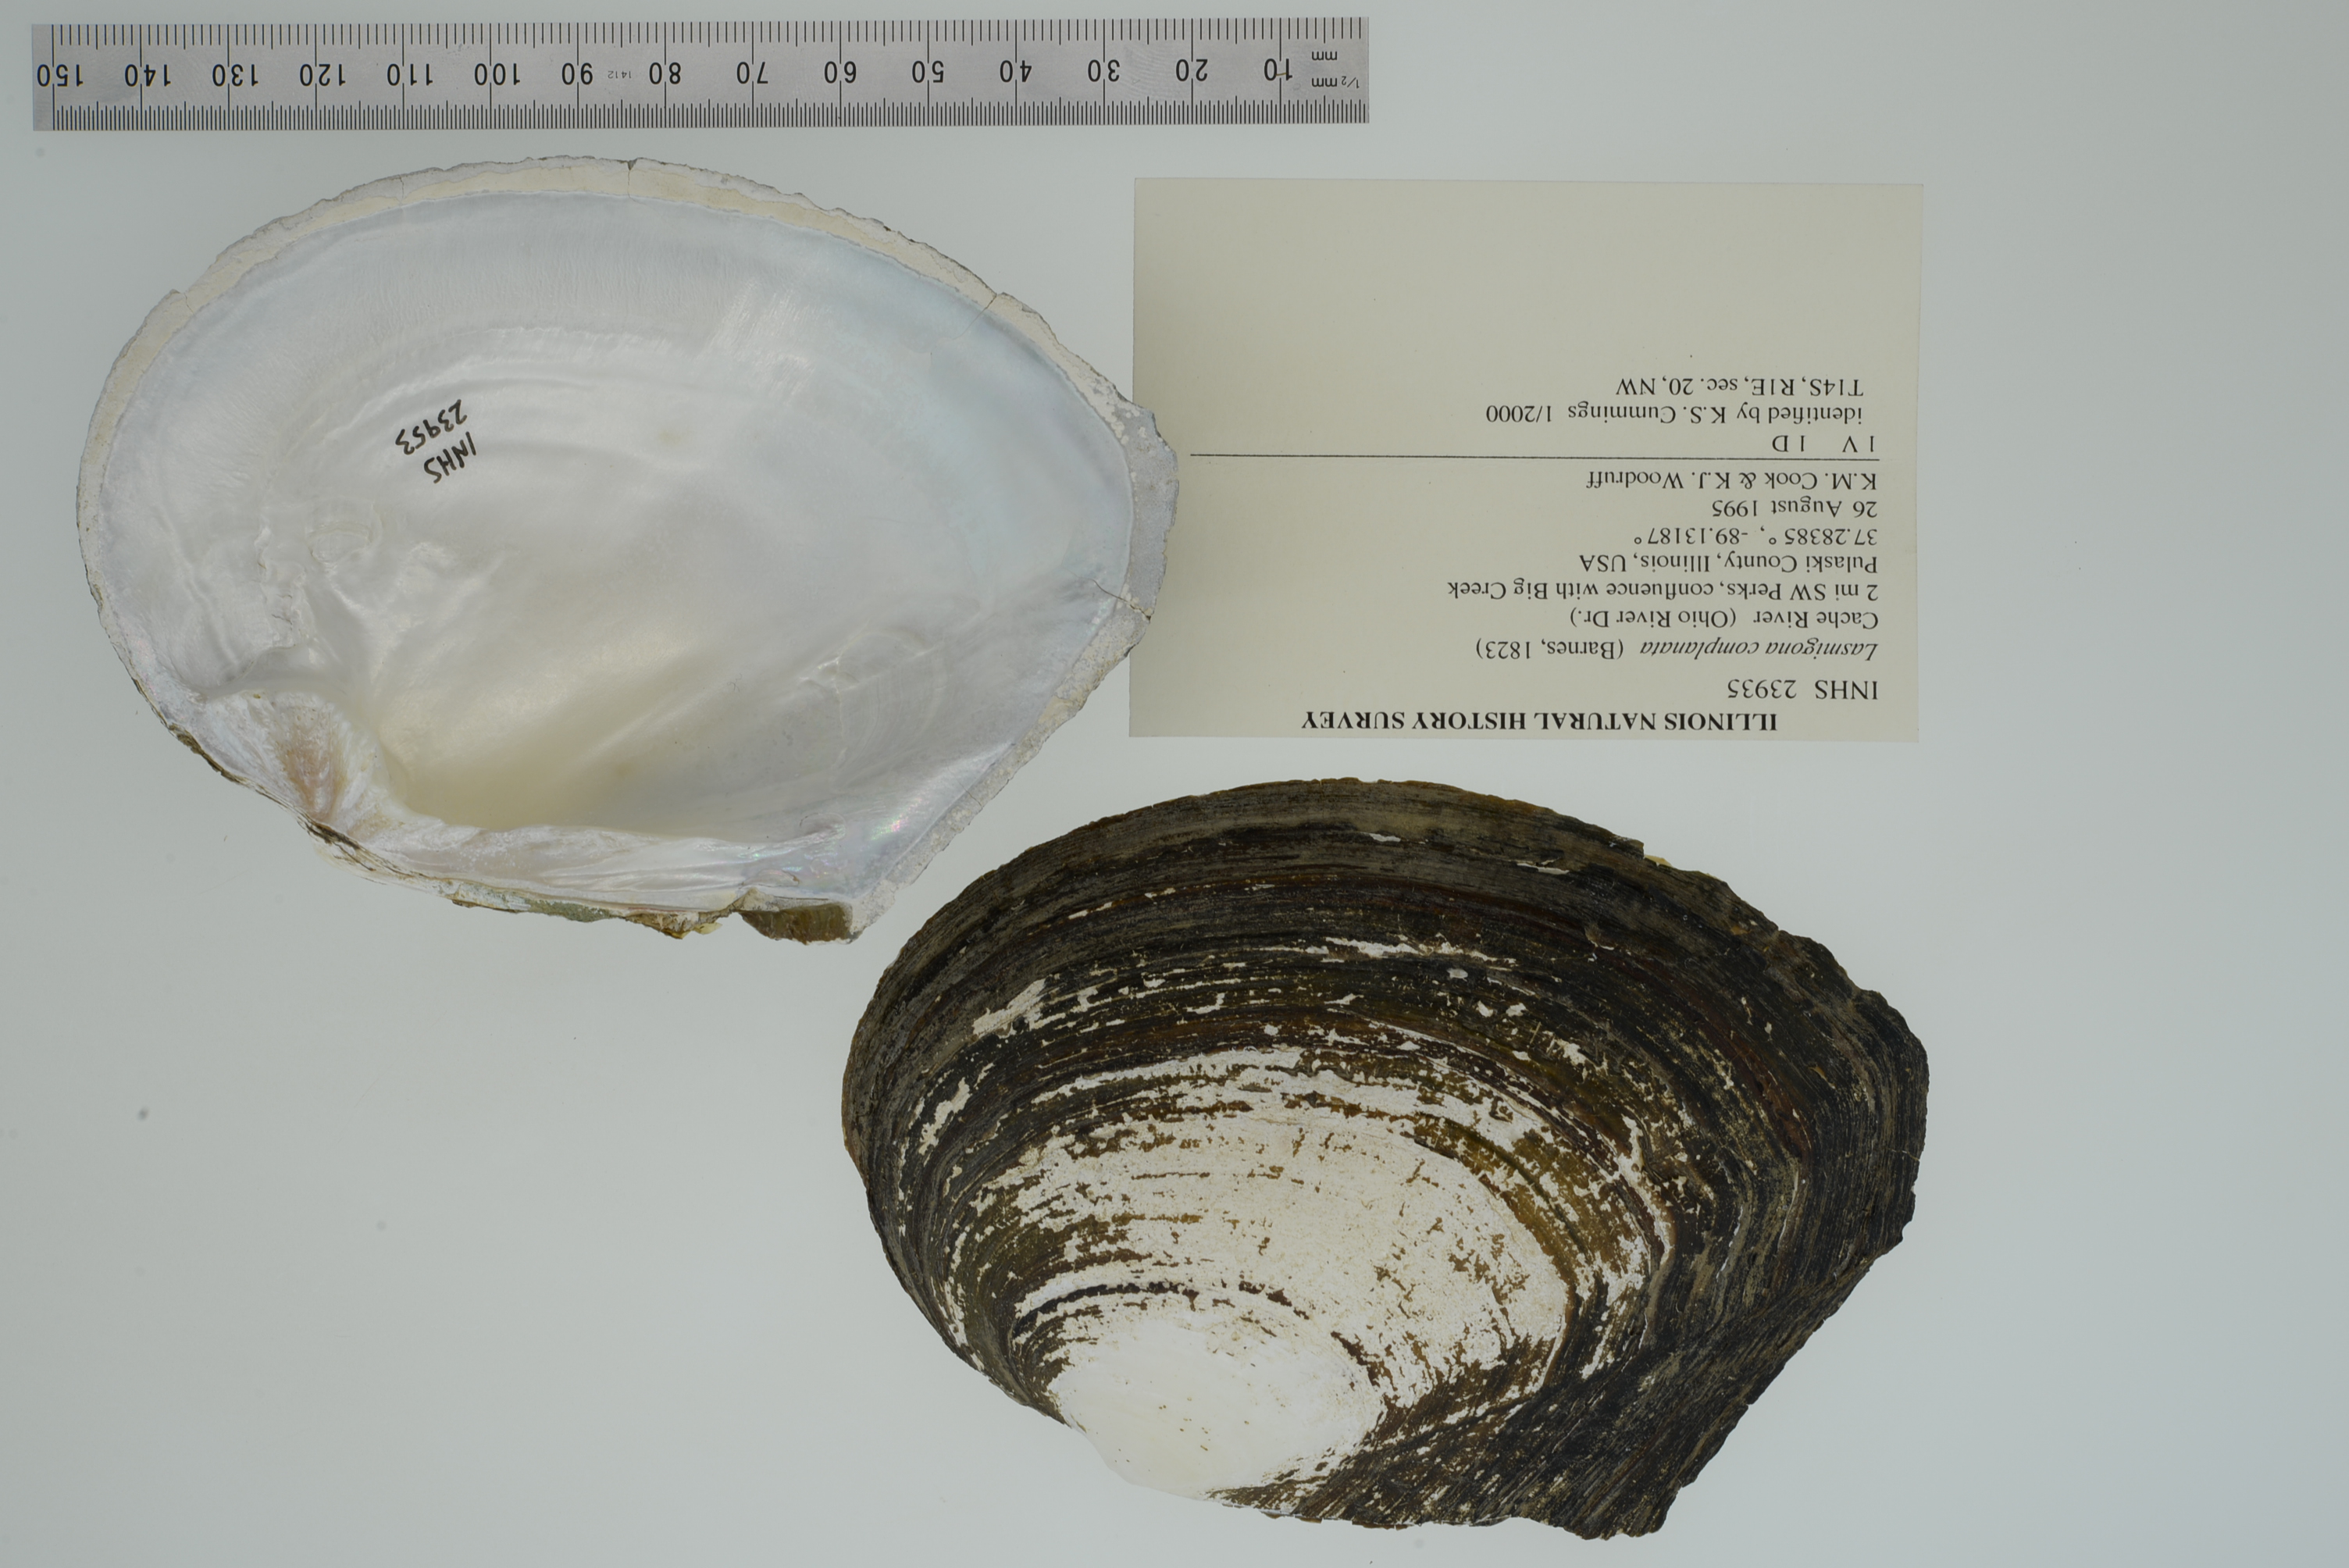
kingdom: Animalia
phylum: Mollusca
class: Bivalvia
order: Unionida
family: Unionidae
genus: Lasmigona
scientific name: Lasmigona complanata
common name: White heelsplitter
